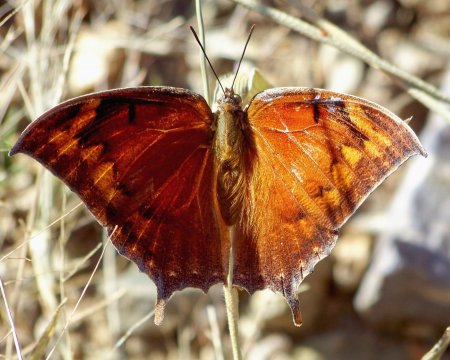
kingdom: Animalia
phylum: Arthropoda
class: Insecta
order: Lepidoptera
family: Nymphalidae
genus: Anaea
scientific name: Anaea aidea
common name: Tropical Leafwing
